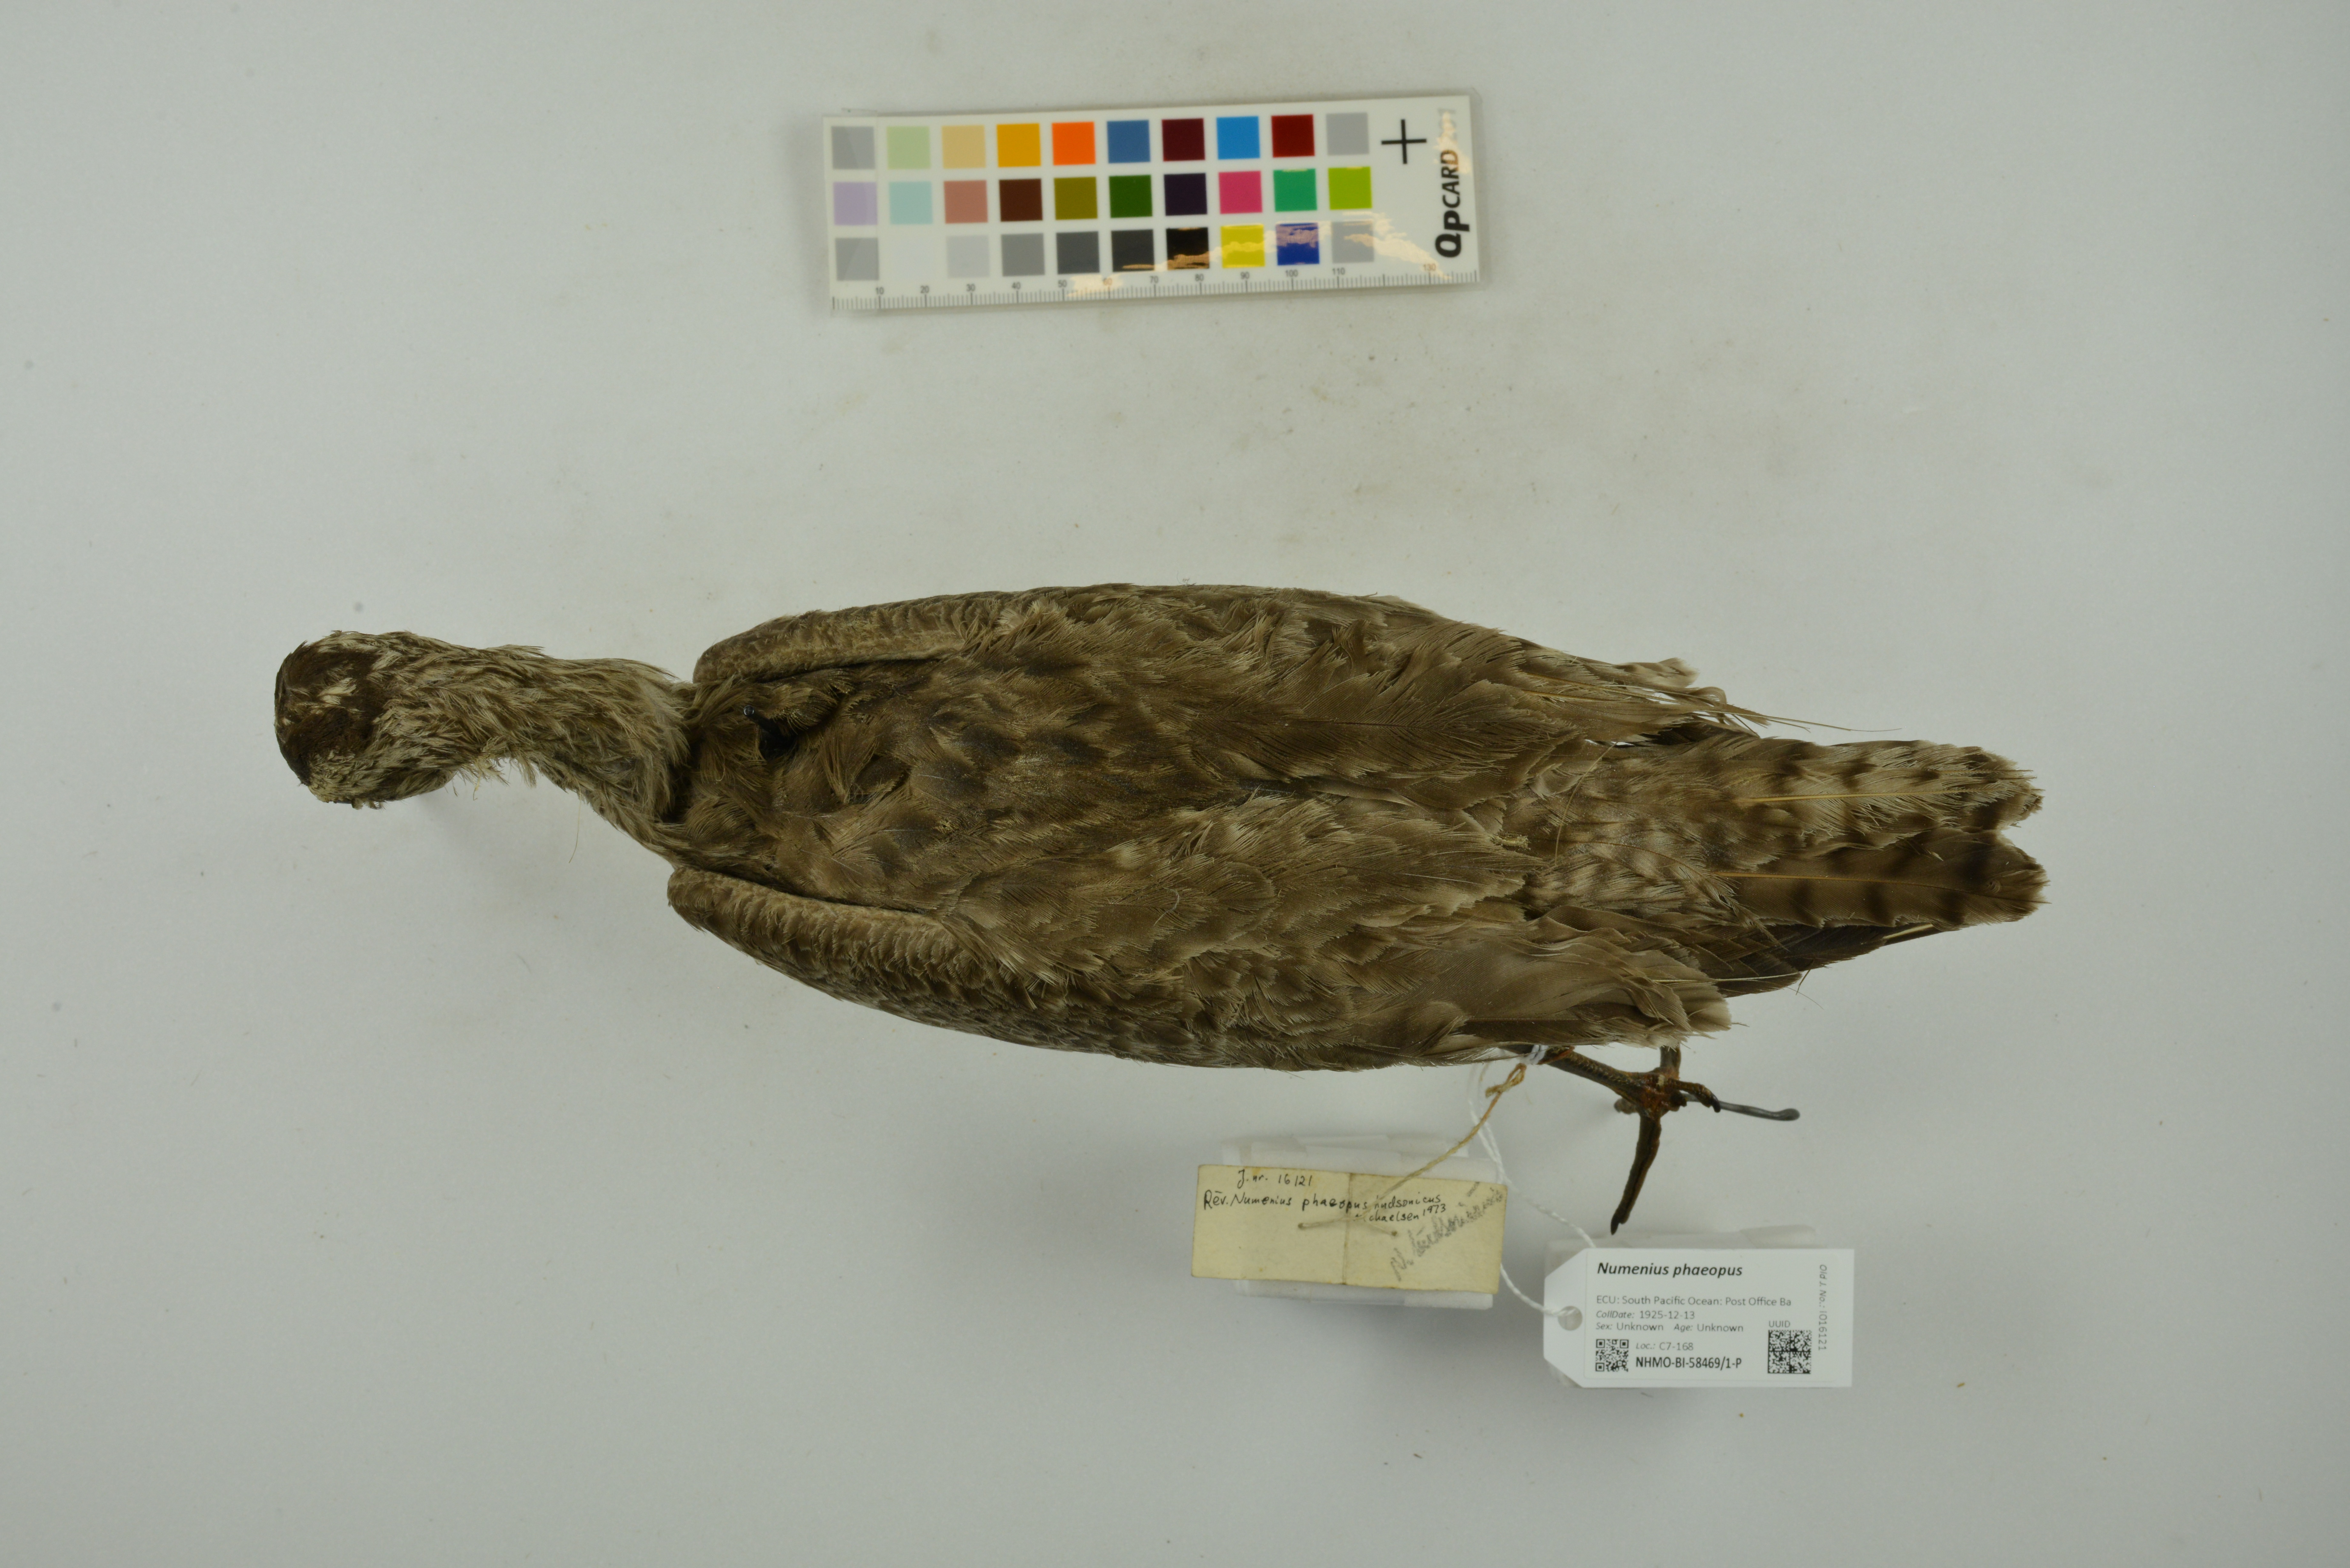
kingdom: Animalia
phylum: Chordata
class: Aves
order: Charadriiformes
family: Scolopacidae
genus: Numenius
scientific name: Numenius phaeopus
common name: Whimbrel
